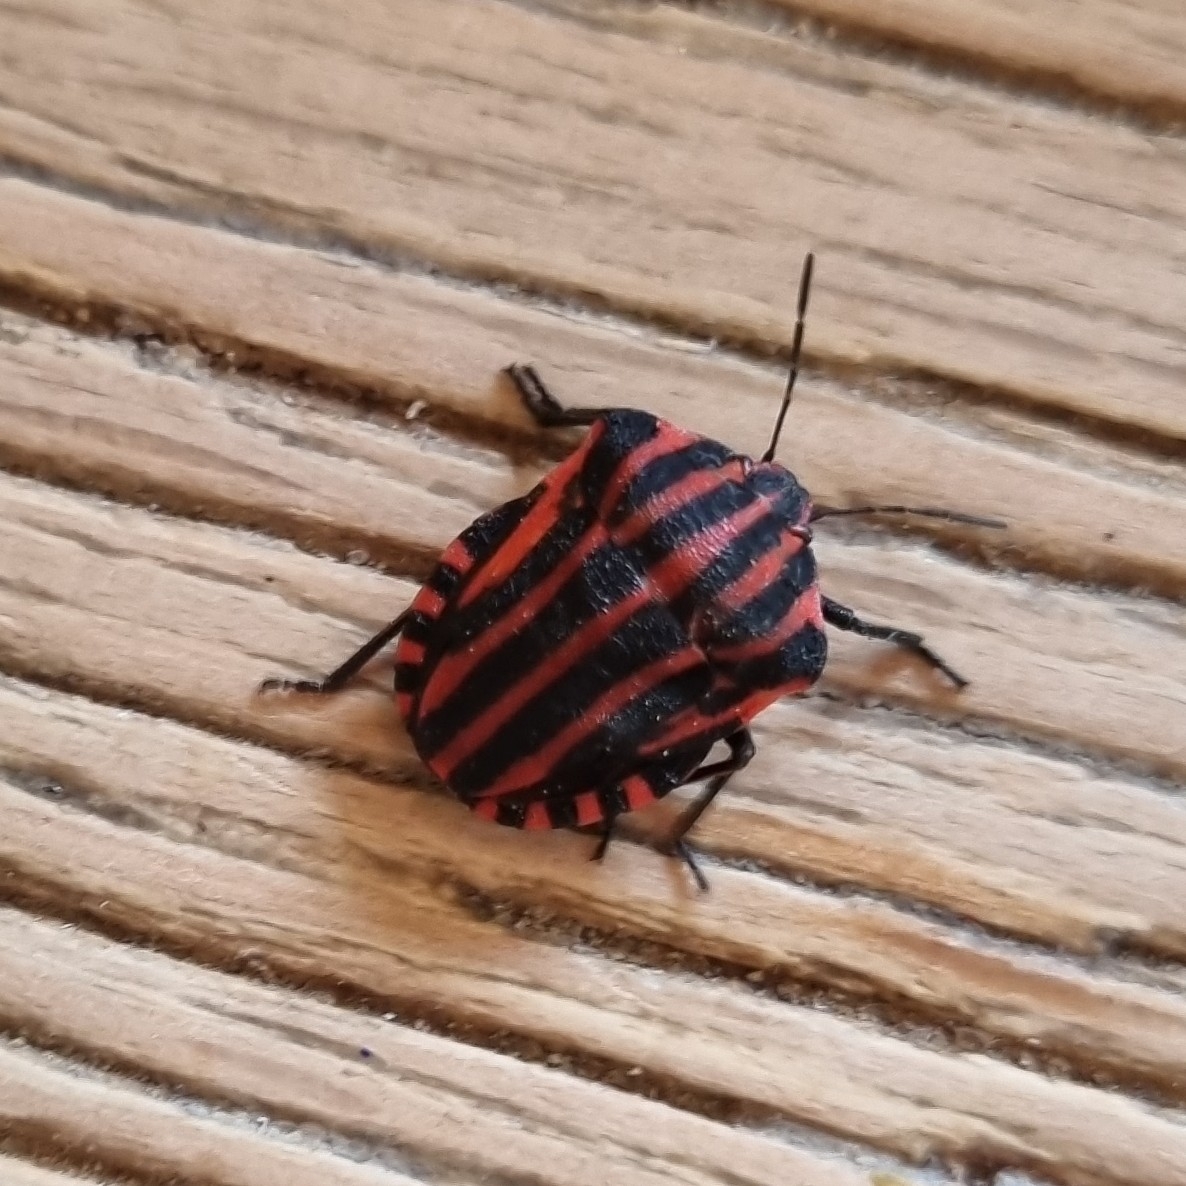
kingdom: Animalia
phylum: Arthropoda
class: Insecta
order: Hemiptera
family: Pentatomidae
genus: Graphosoma
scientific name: Graphosoma italicum
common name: Stribetæge
